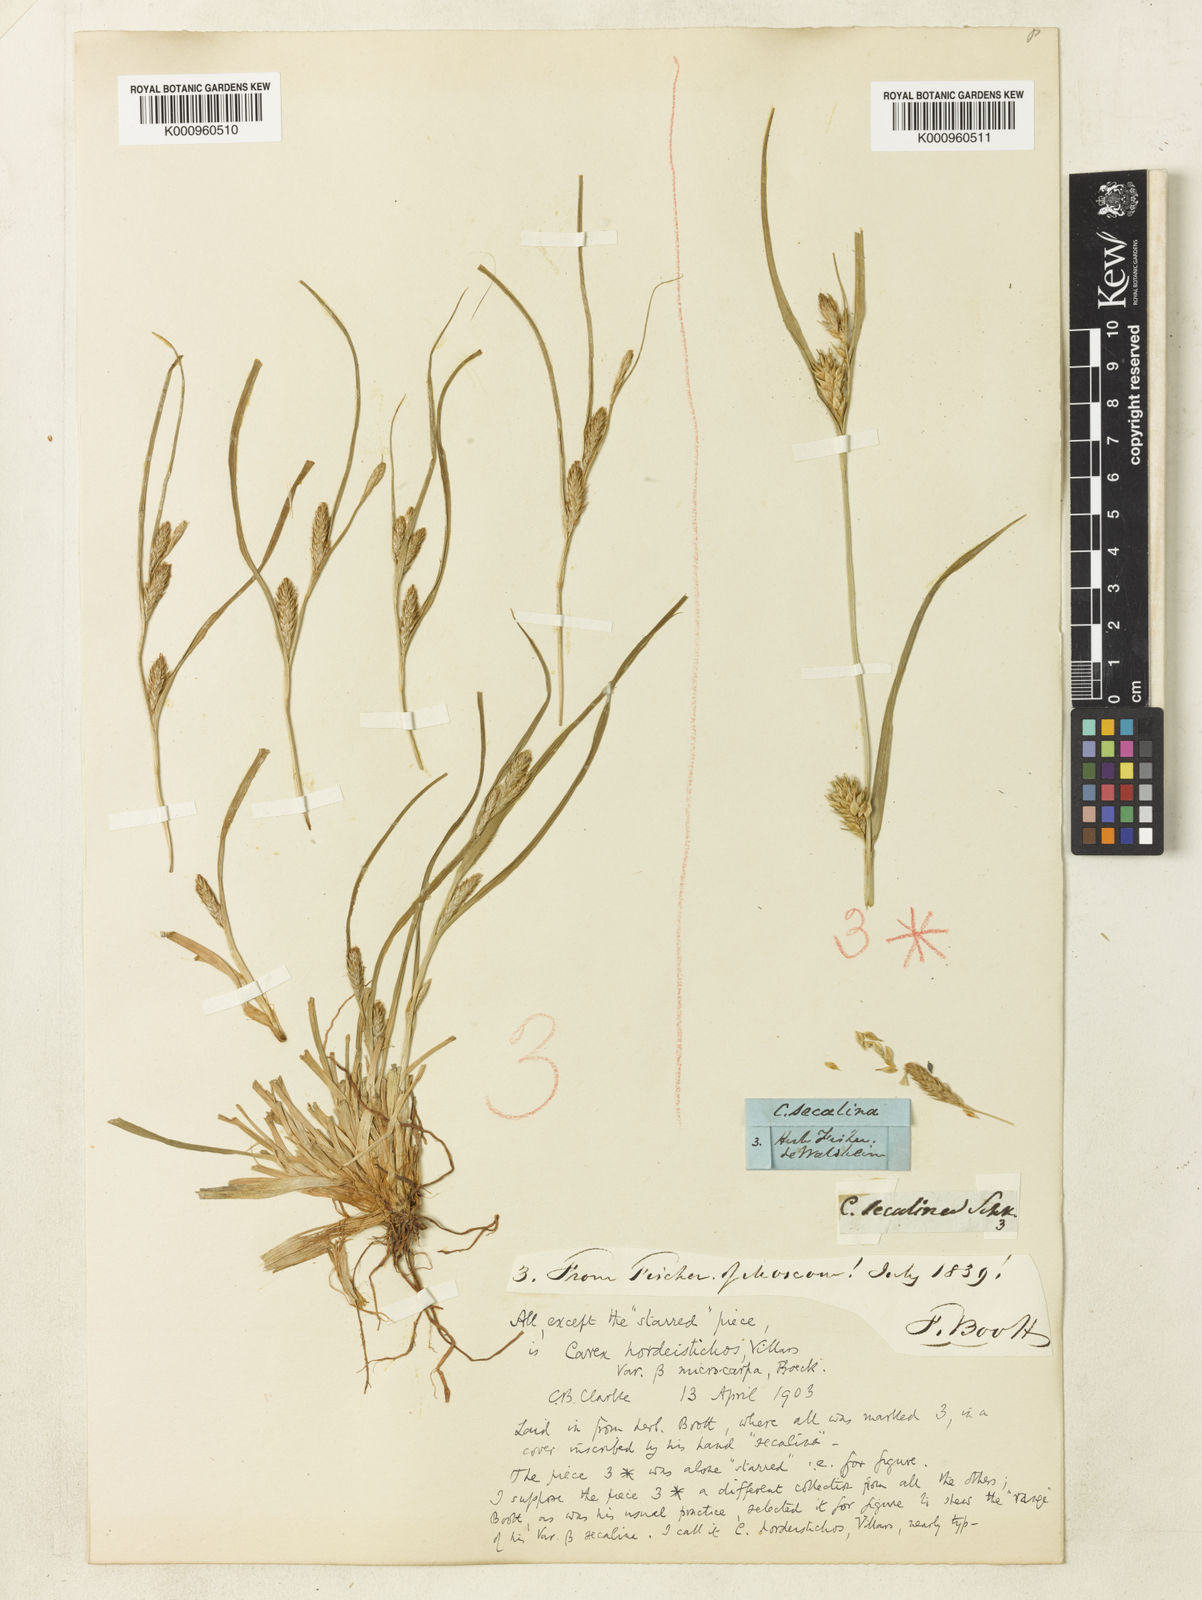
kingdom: Plantae
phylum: Tracheophyta
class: Liliopsida
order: Poales
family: Cyperaceae
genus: Carex
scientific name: Carex hordeistichos
